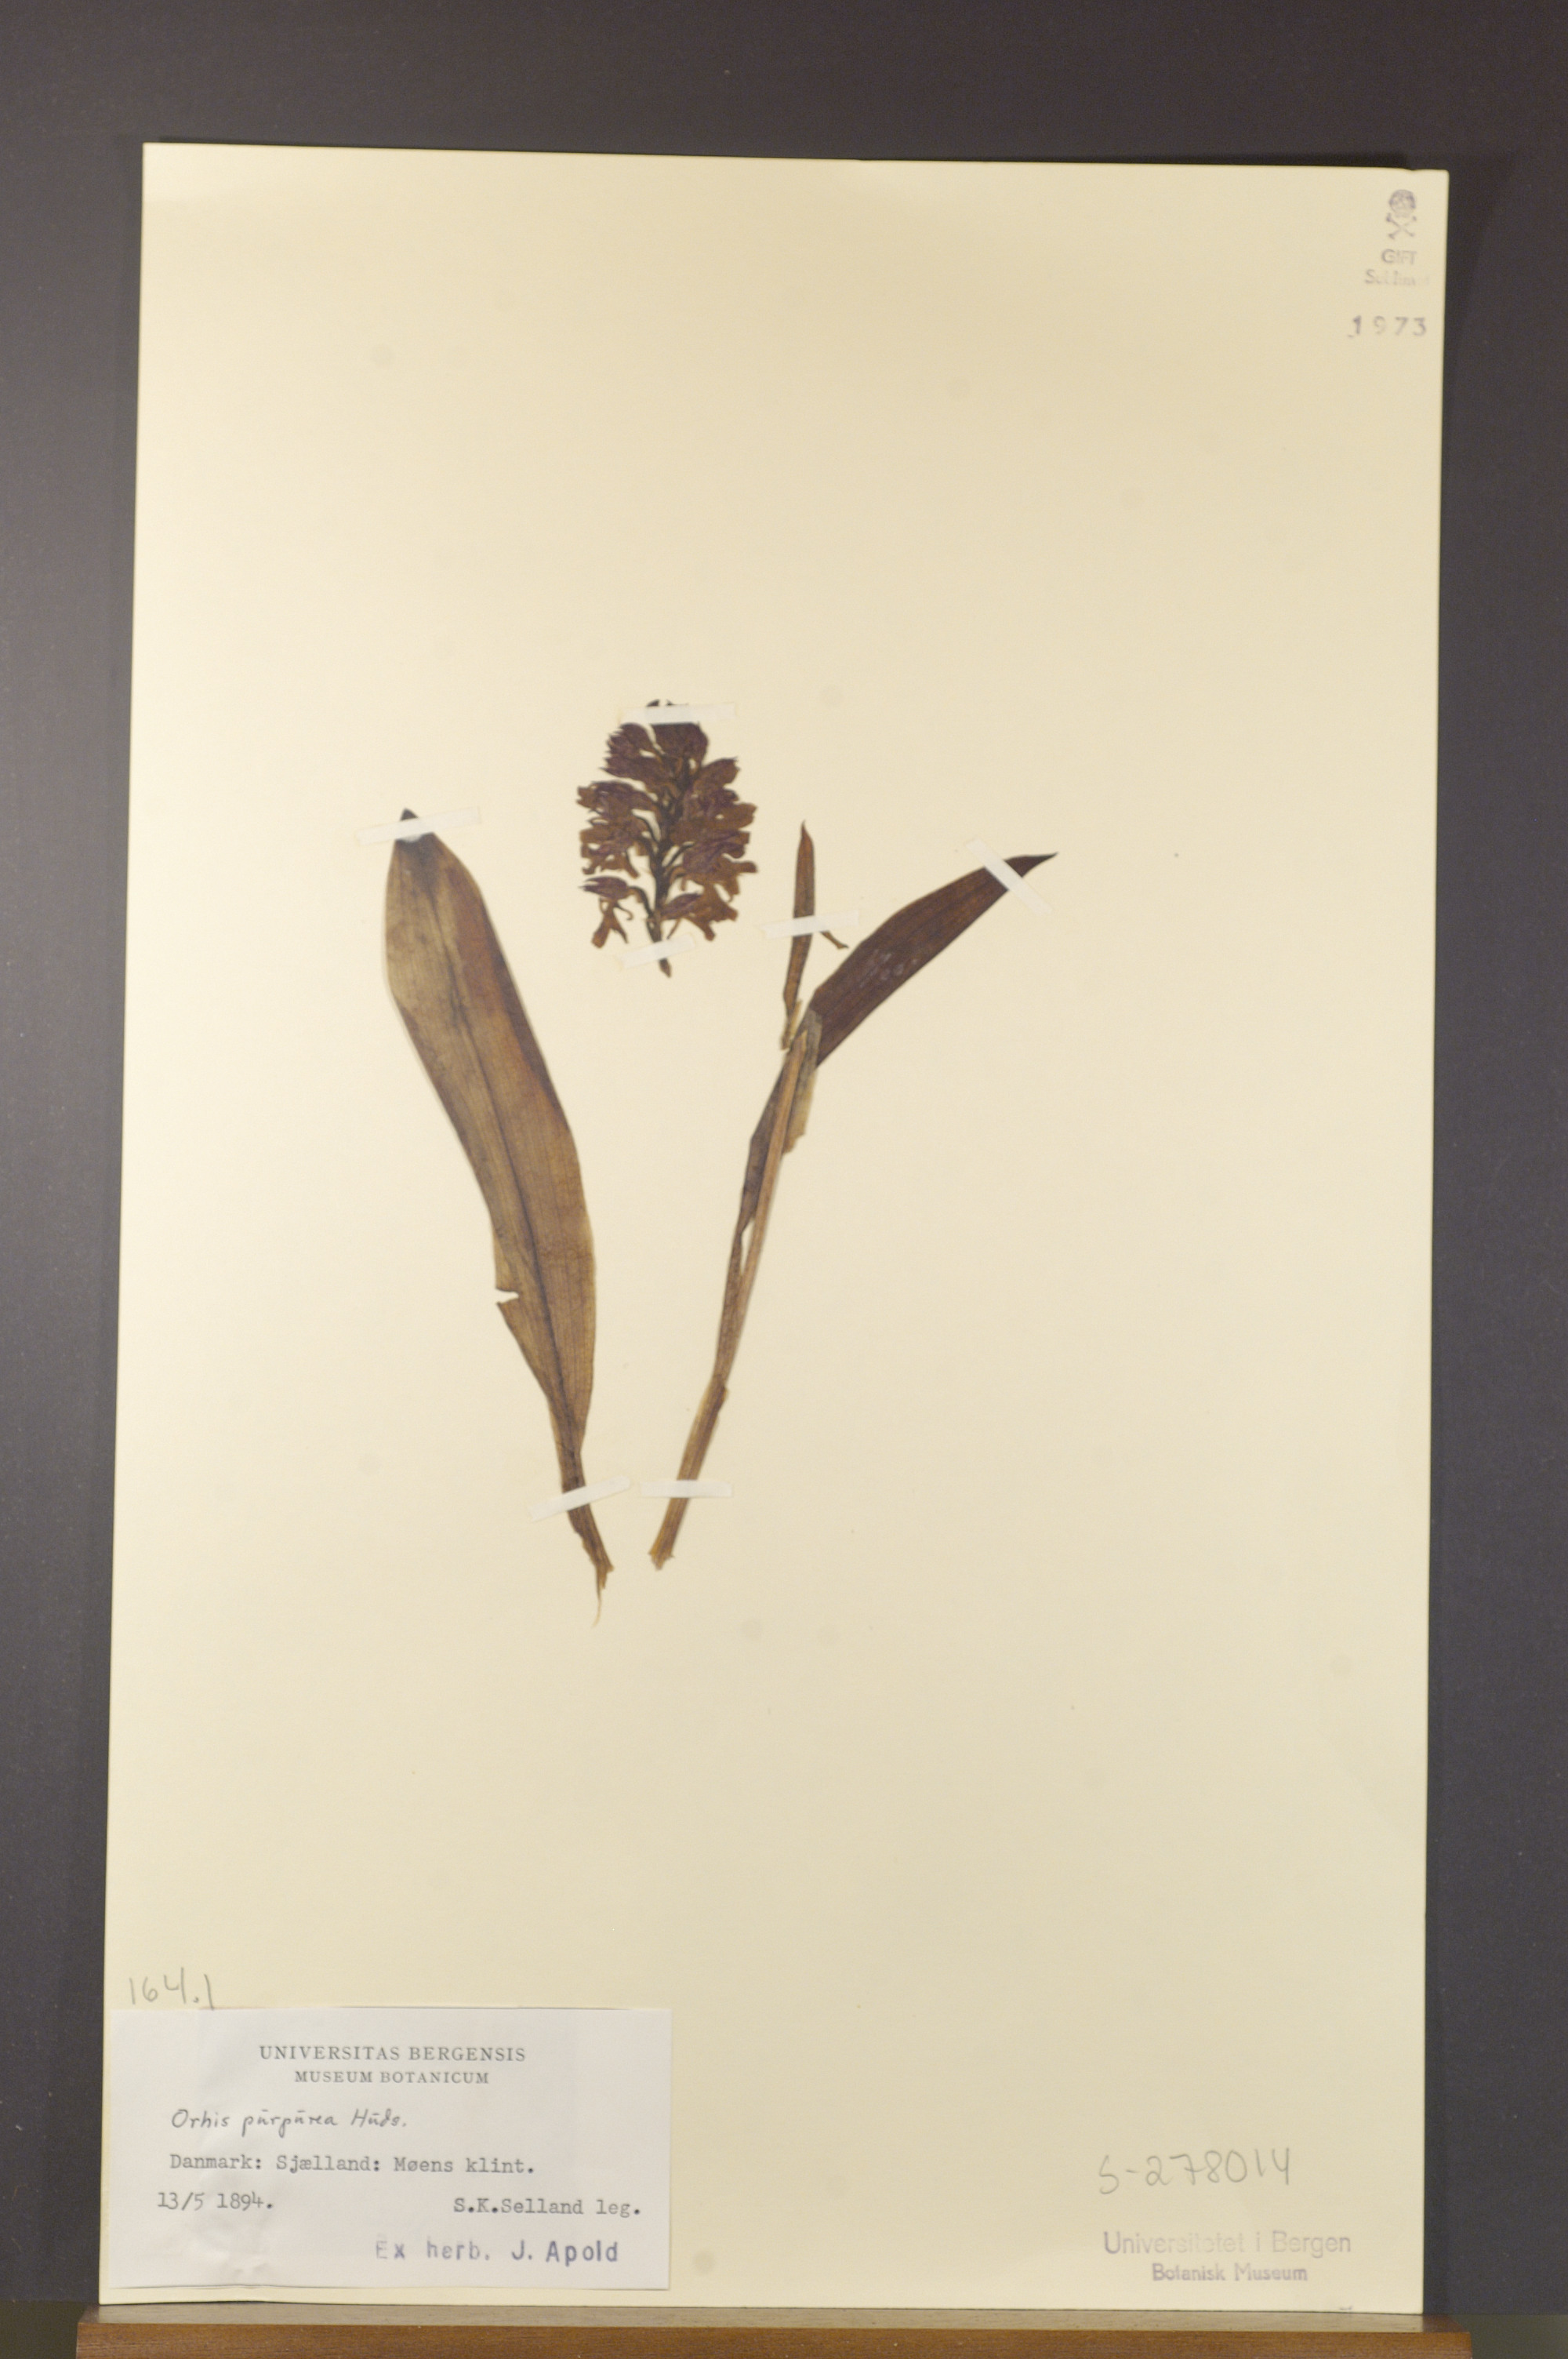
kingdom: Plantae
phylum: Tracheophyta
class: Liliopsida
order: Asparagales
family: Orchidaceae
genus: Orchis
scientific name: Orchis purpurea
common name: Lady orchid
